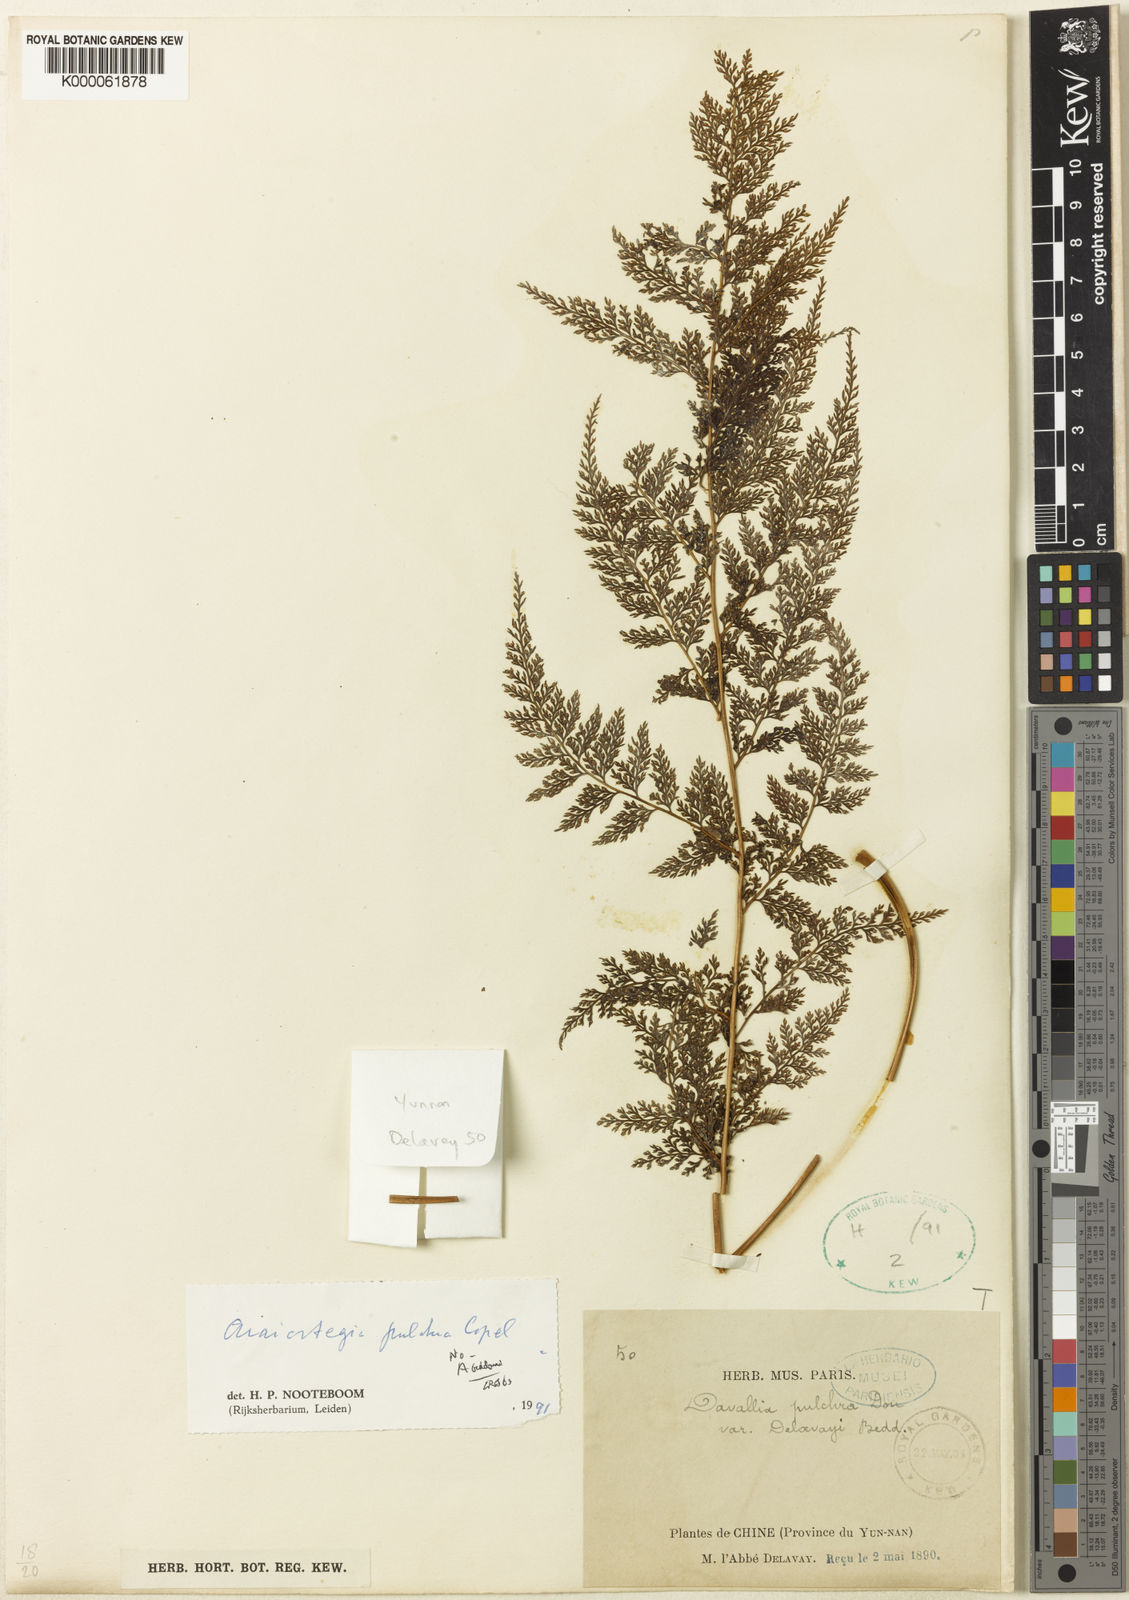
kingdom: Plantae
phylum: Tracheophyta
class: Polypodiopsida
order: Polypodiales
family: Davalliaceae
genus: Davallodes
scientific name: Davallodes pulchra
